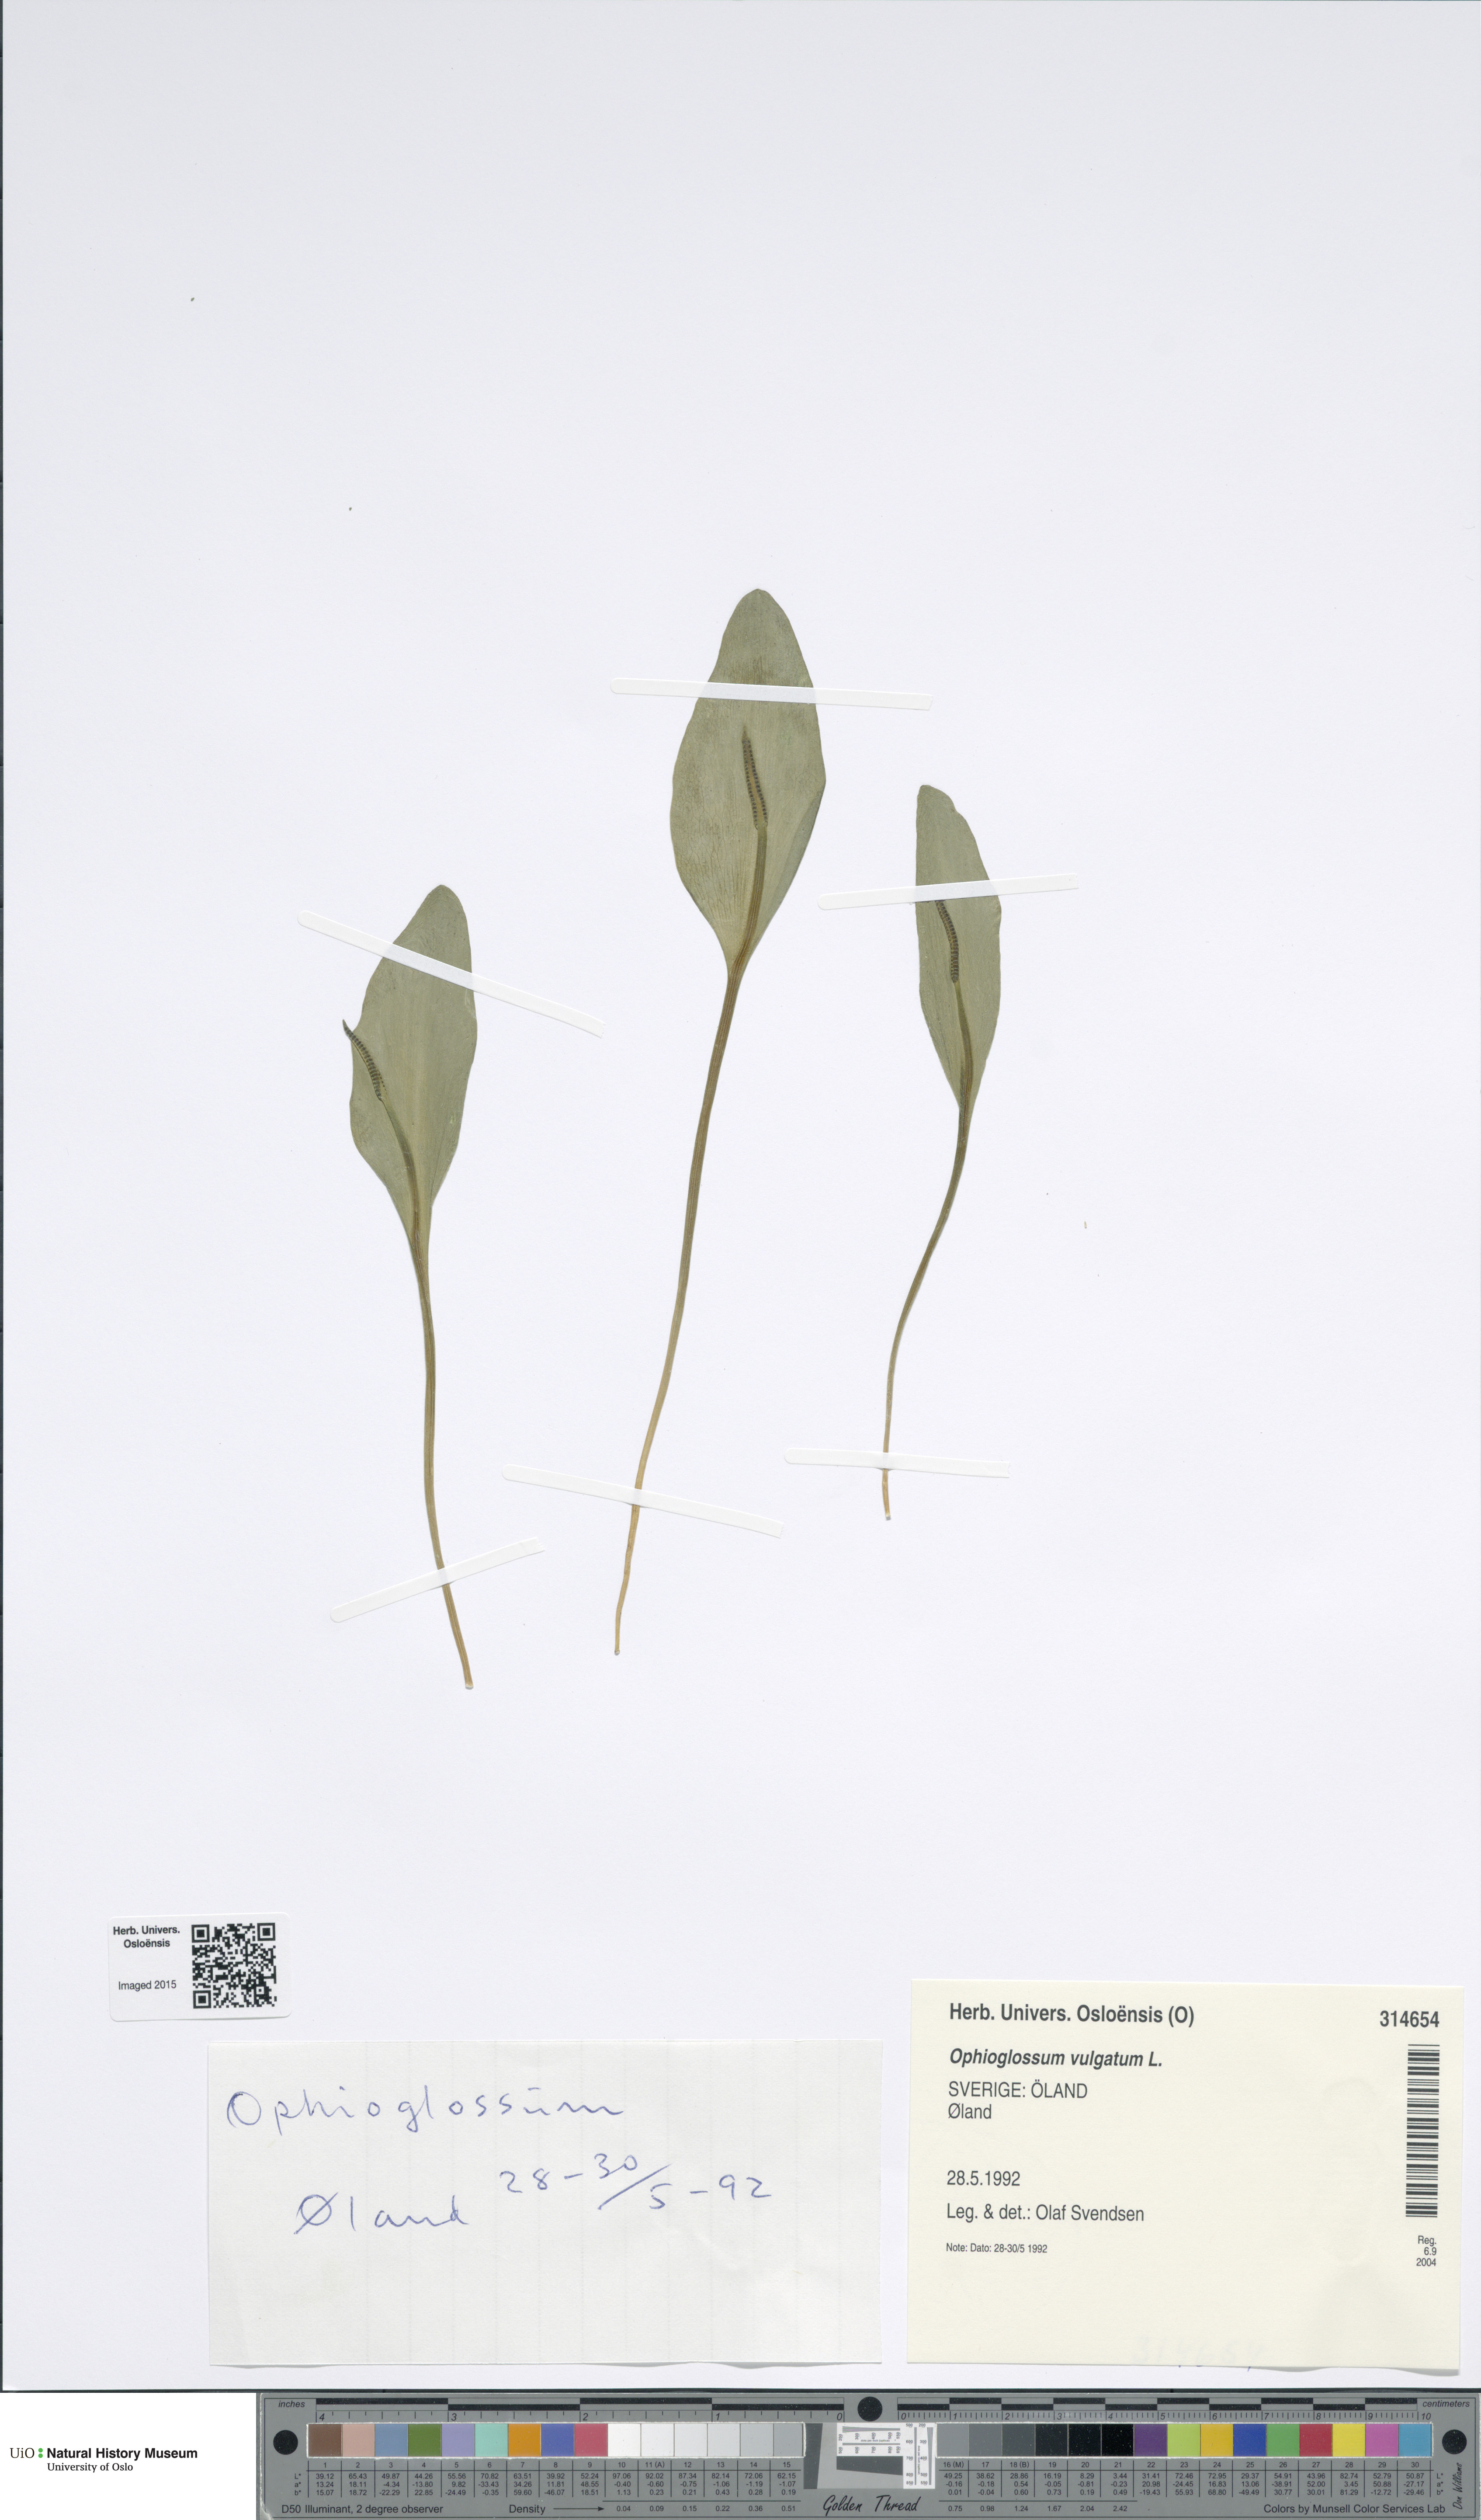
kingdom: Plantae
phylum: Tracheophyta
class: Polypodiopsida
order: Ophioglossales
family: Ophioglossaceae
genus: Ophioglossum
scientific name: Ophioglossum vulgatum
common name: Adder's-tongue
